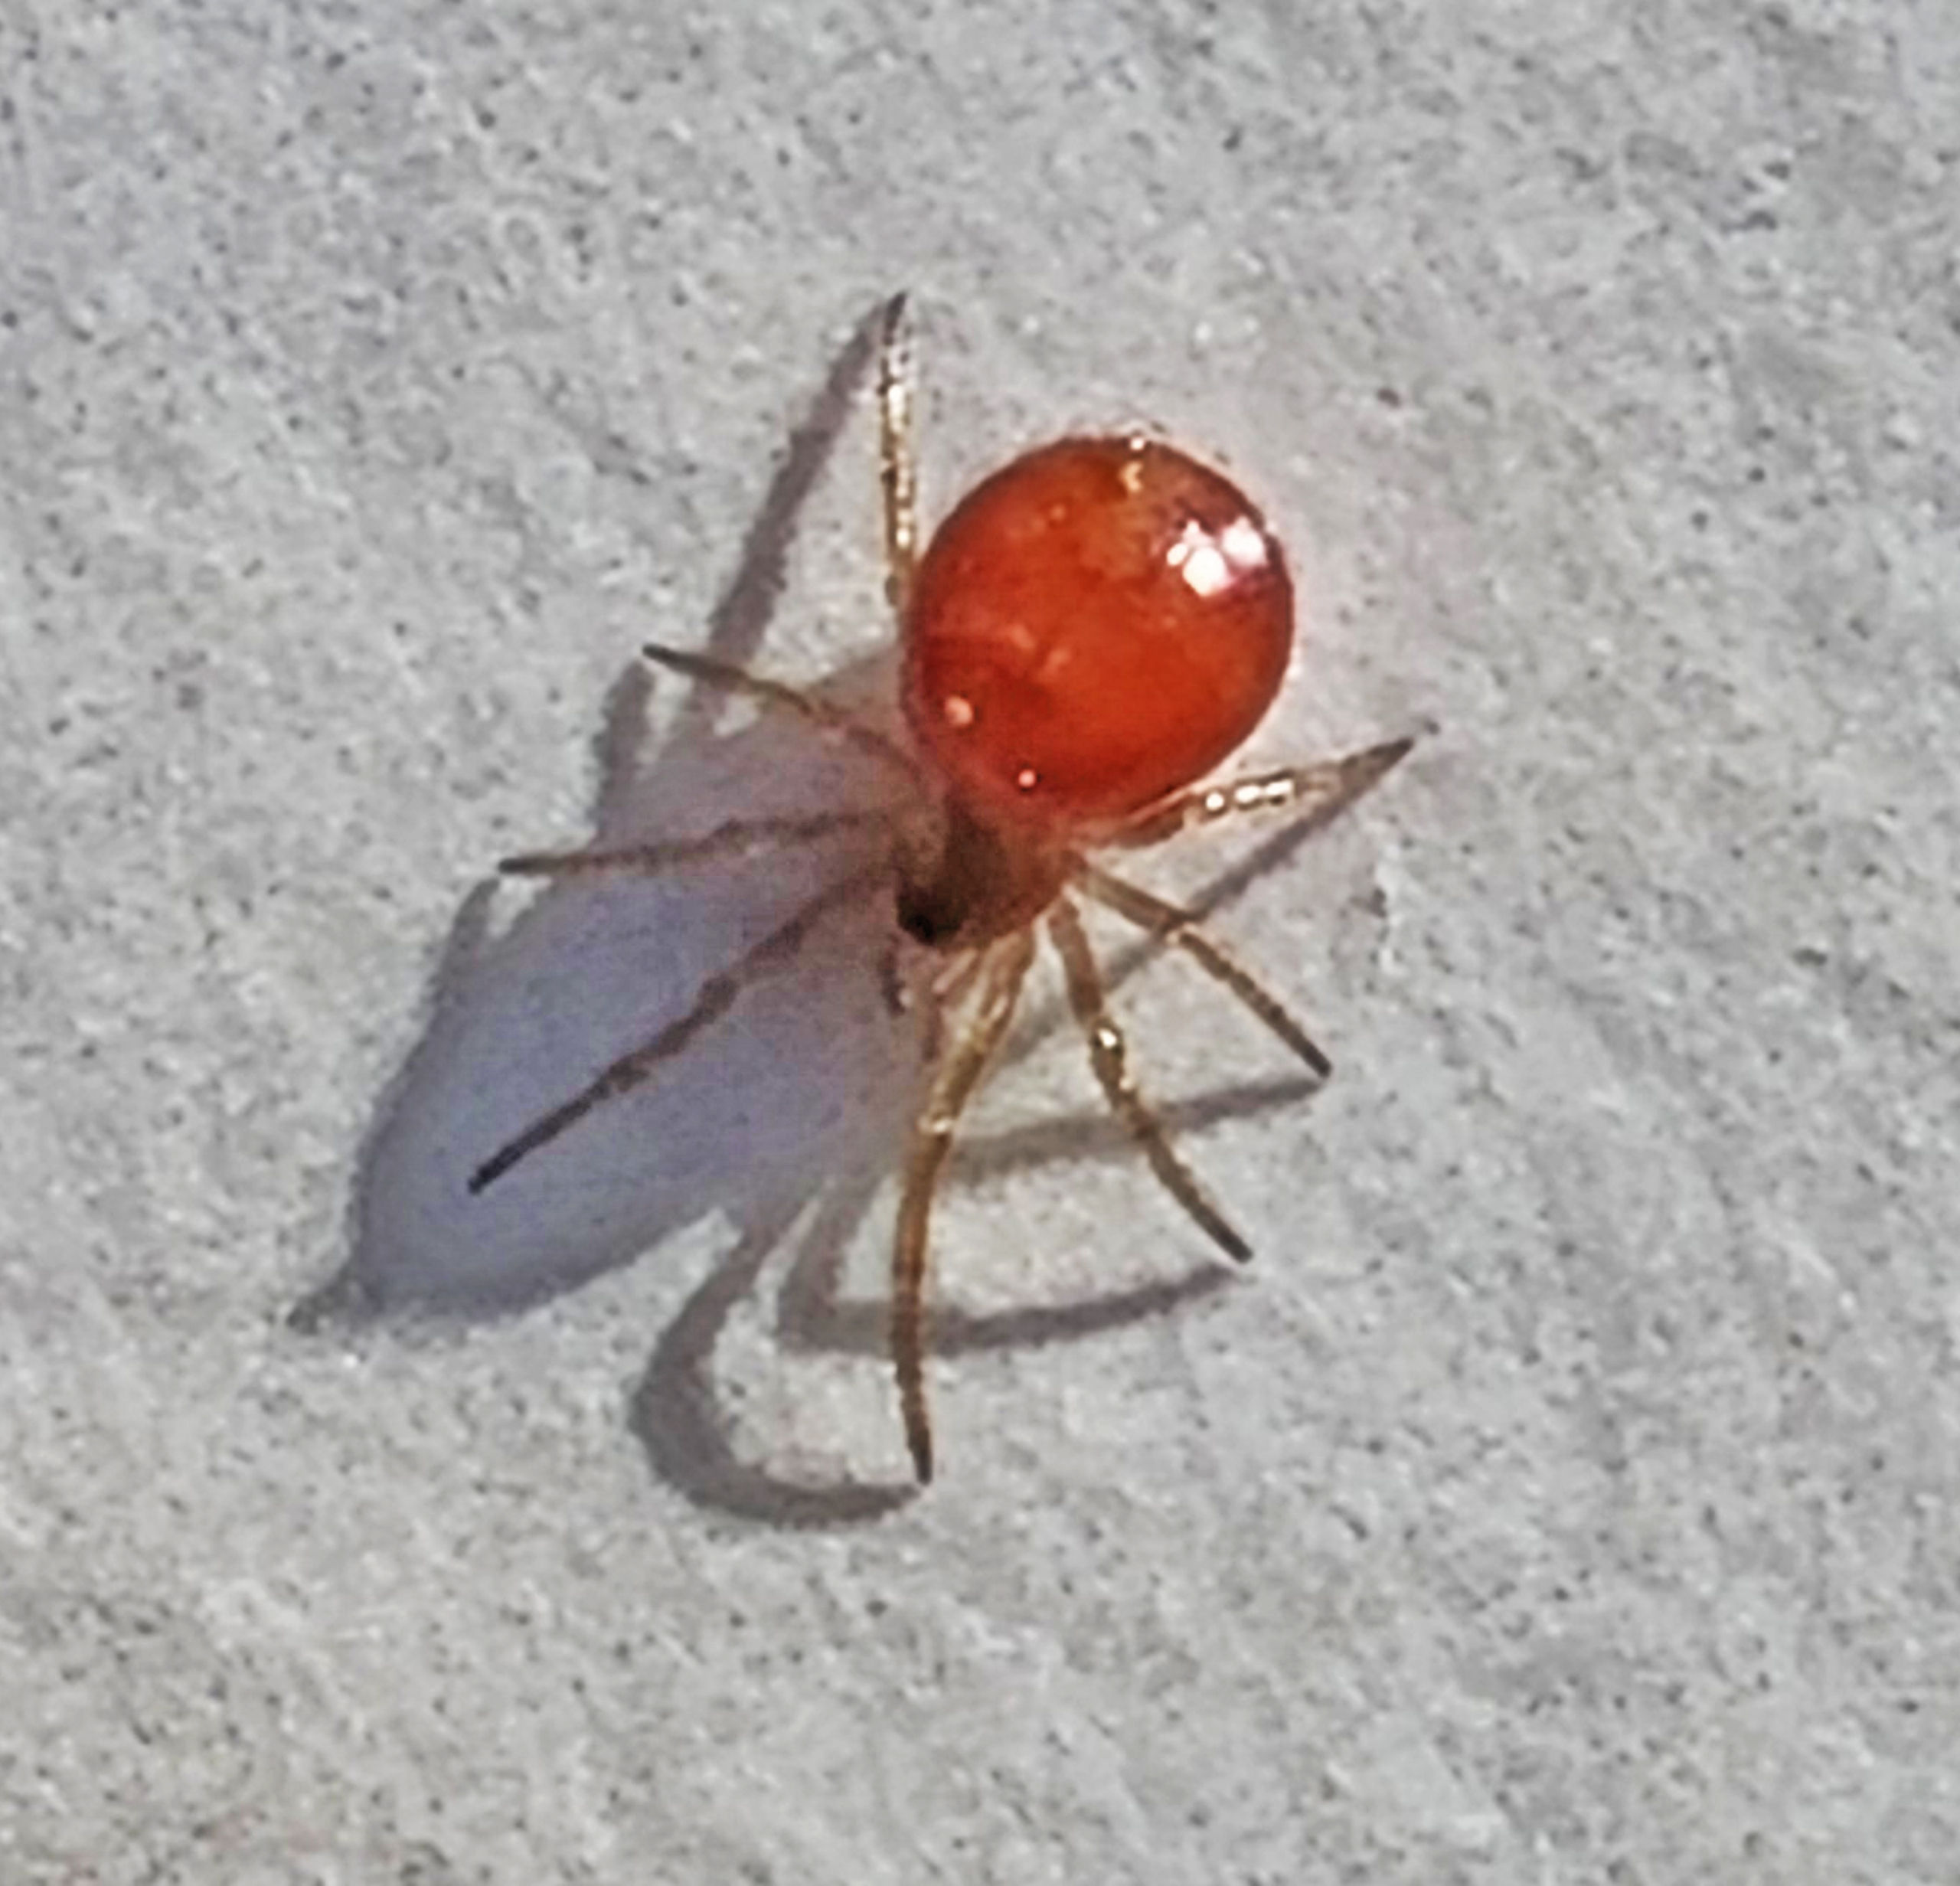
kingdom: Animalia
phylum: Arthropoda
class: Arachnida
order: Araneae
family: Theridiidae
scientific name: Theridiidae
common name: Kugleedderkopper
